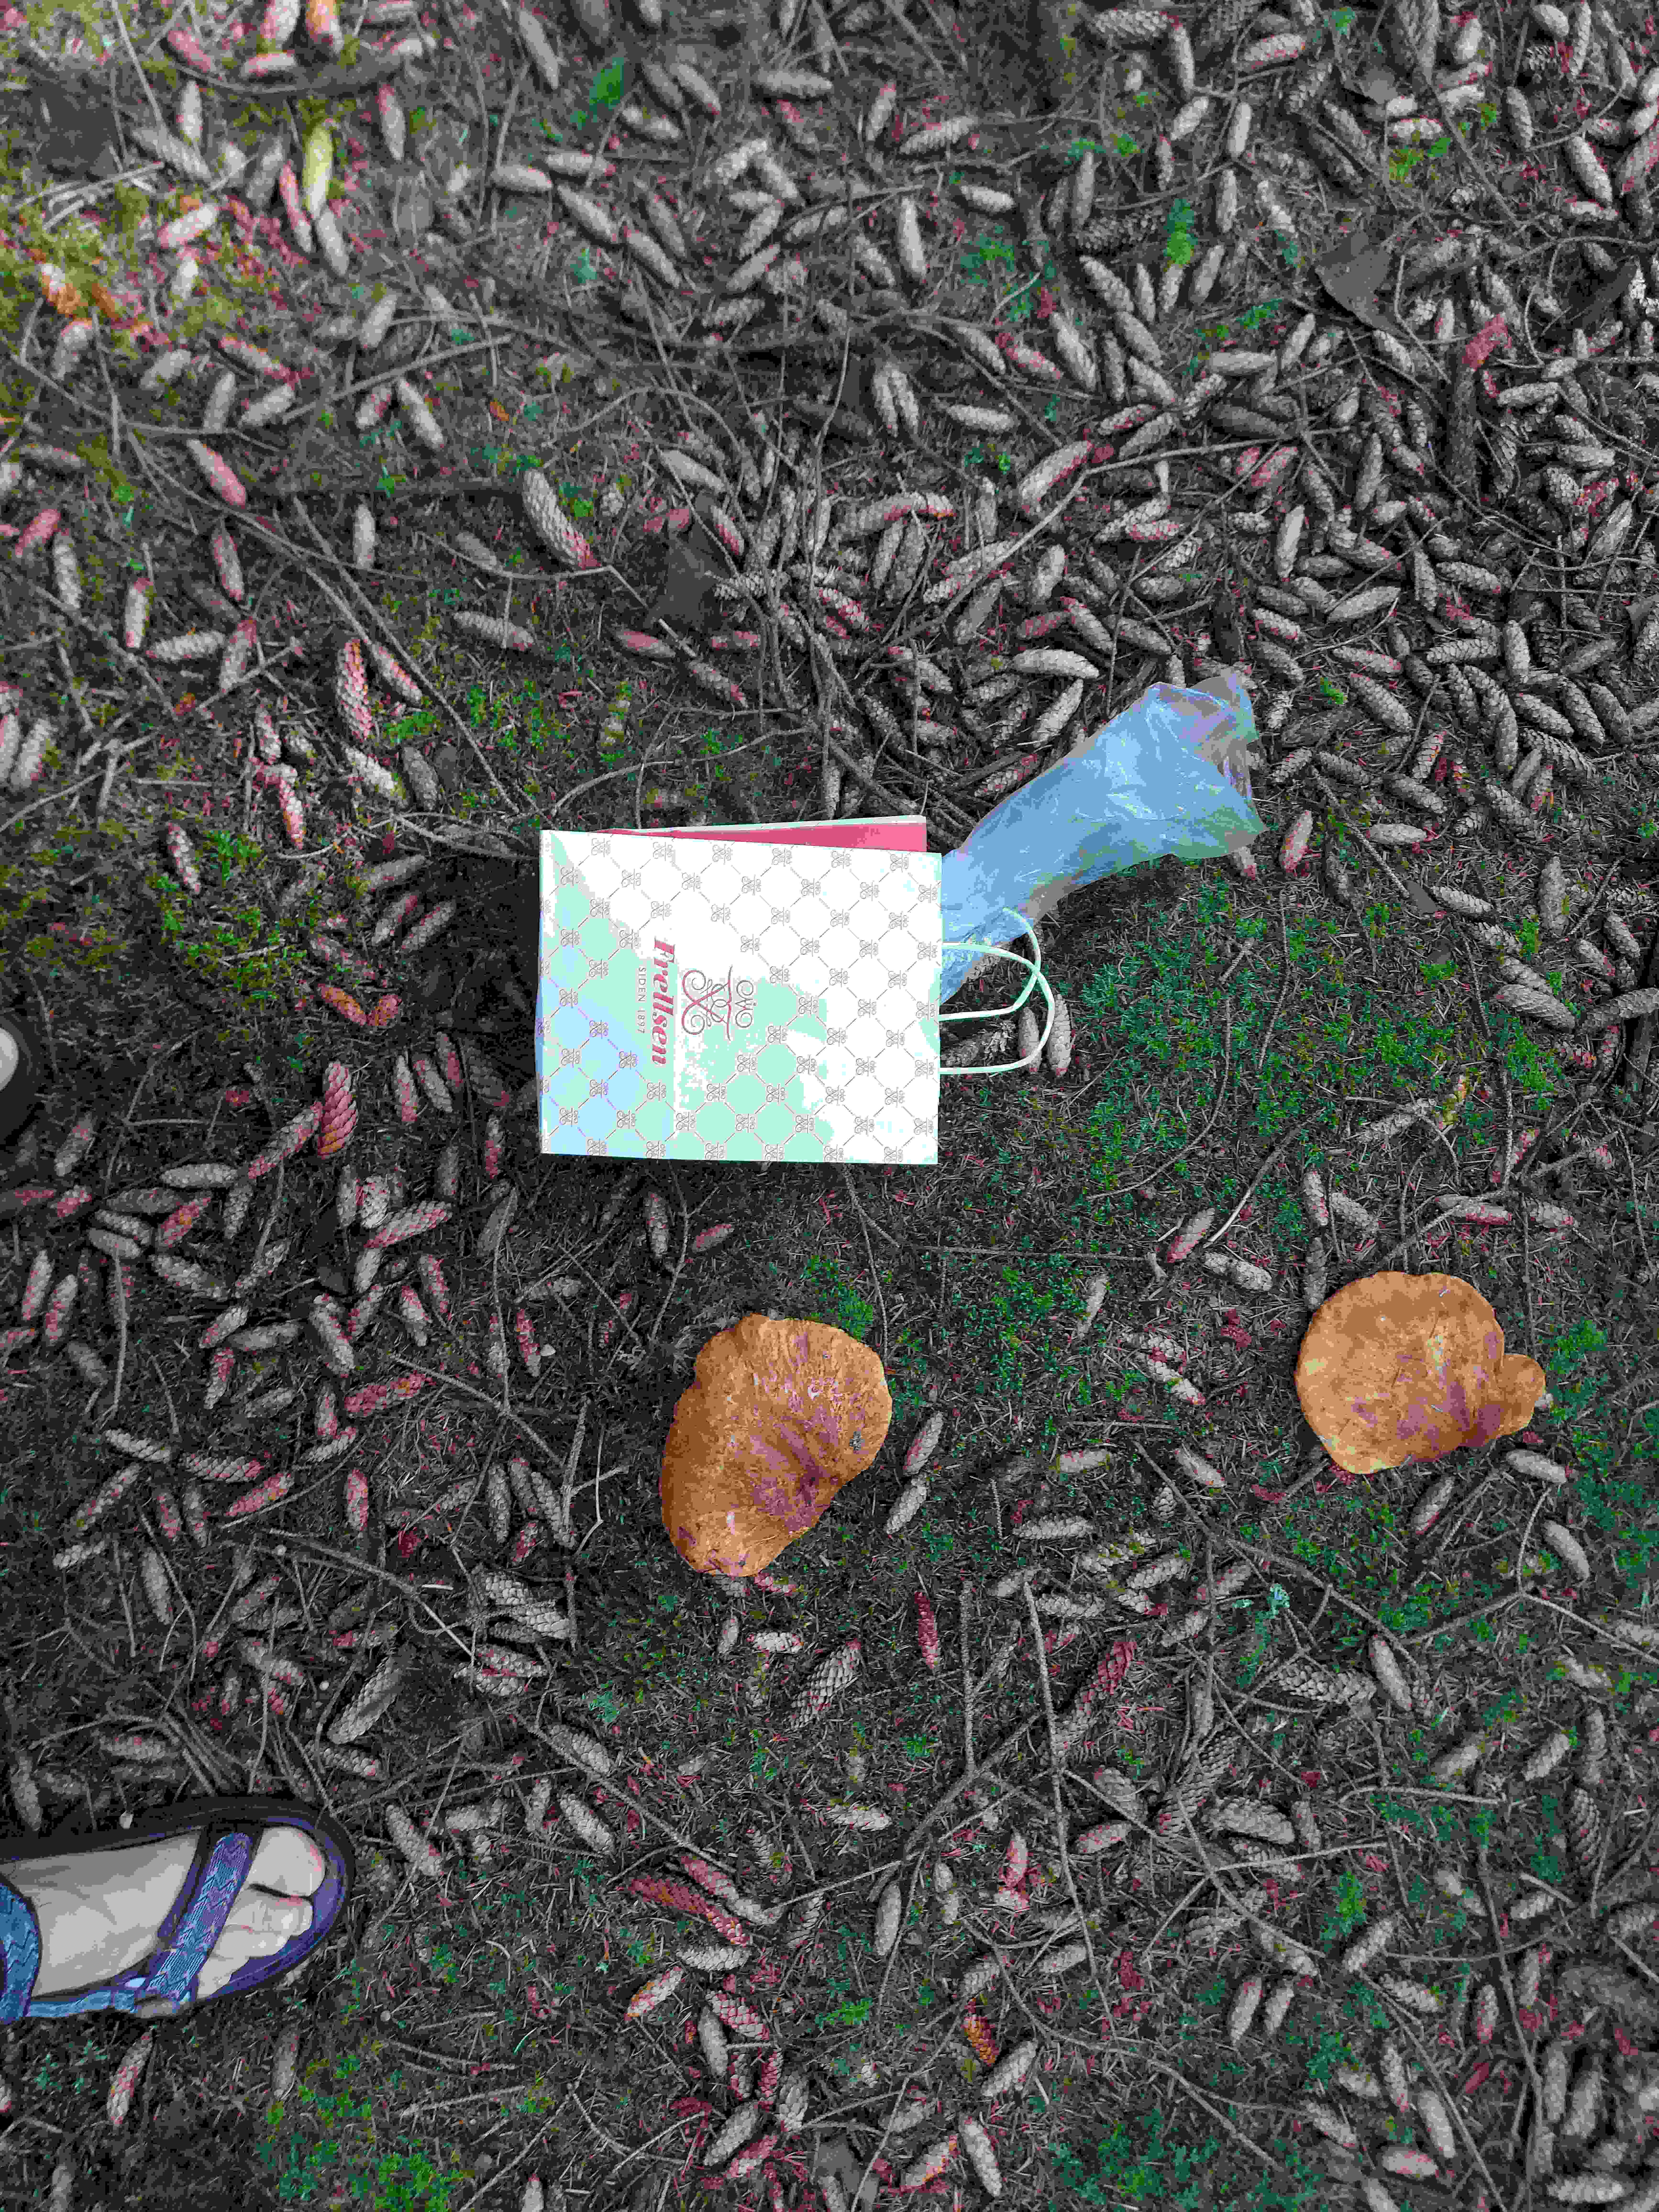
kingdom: Fungi
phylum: Basidiomycota
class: Agaricomycetes
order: Boletales
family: Tapinellaceae
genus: Tapinella
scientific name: Tapinella atrotomentosa
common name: sortfiltet viftesvamp
